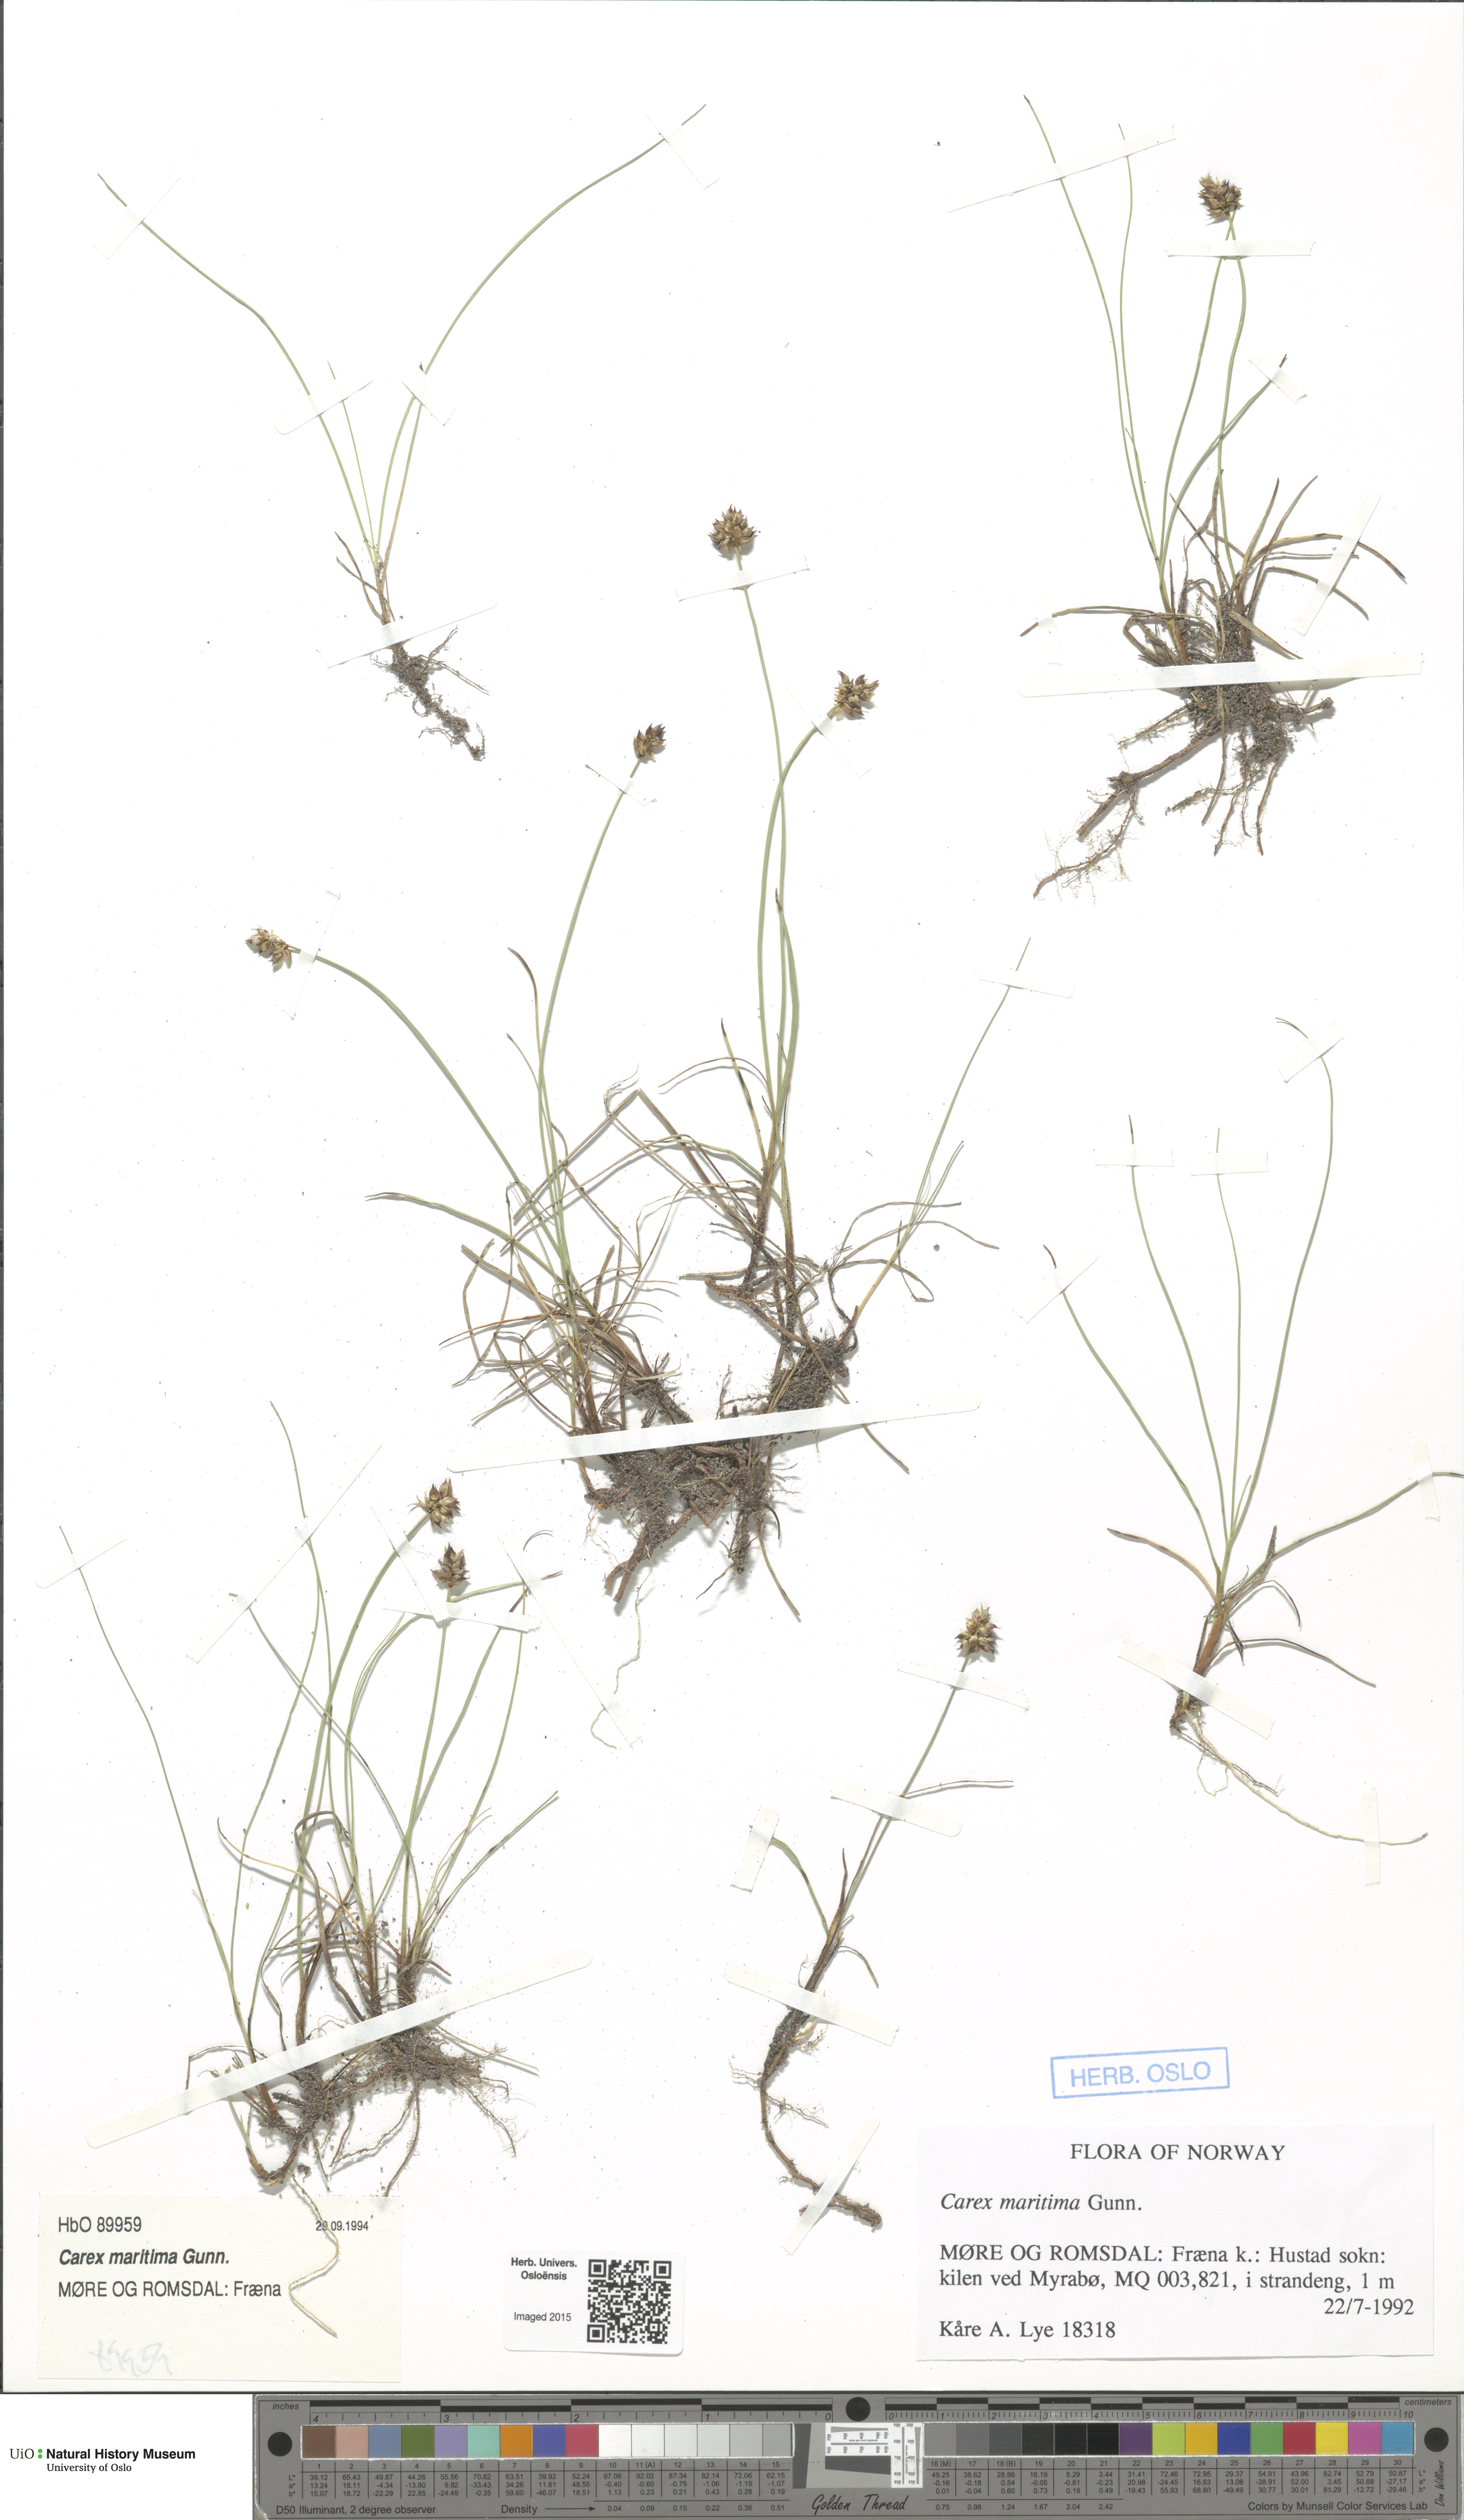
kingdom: Plantae
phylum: Tracheophyta
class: Liliopsida
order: Poales
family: Cyperaceae
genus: Carex
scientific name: Carex maritima
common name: Curved sedge
